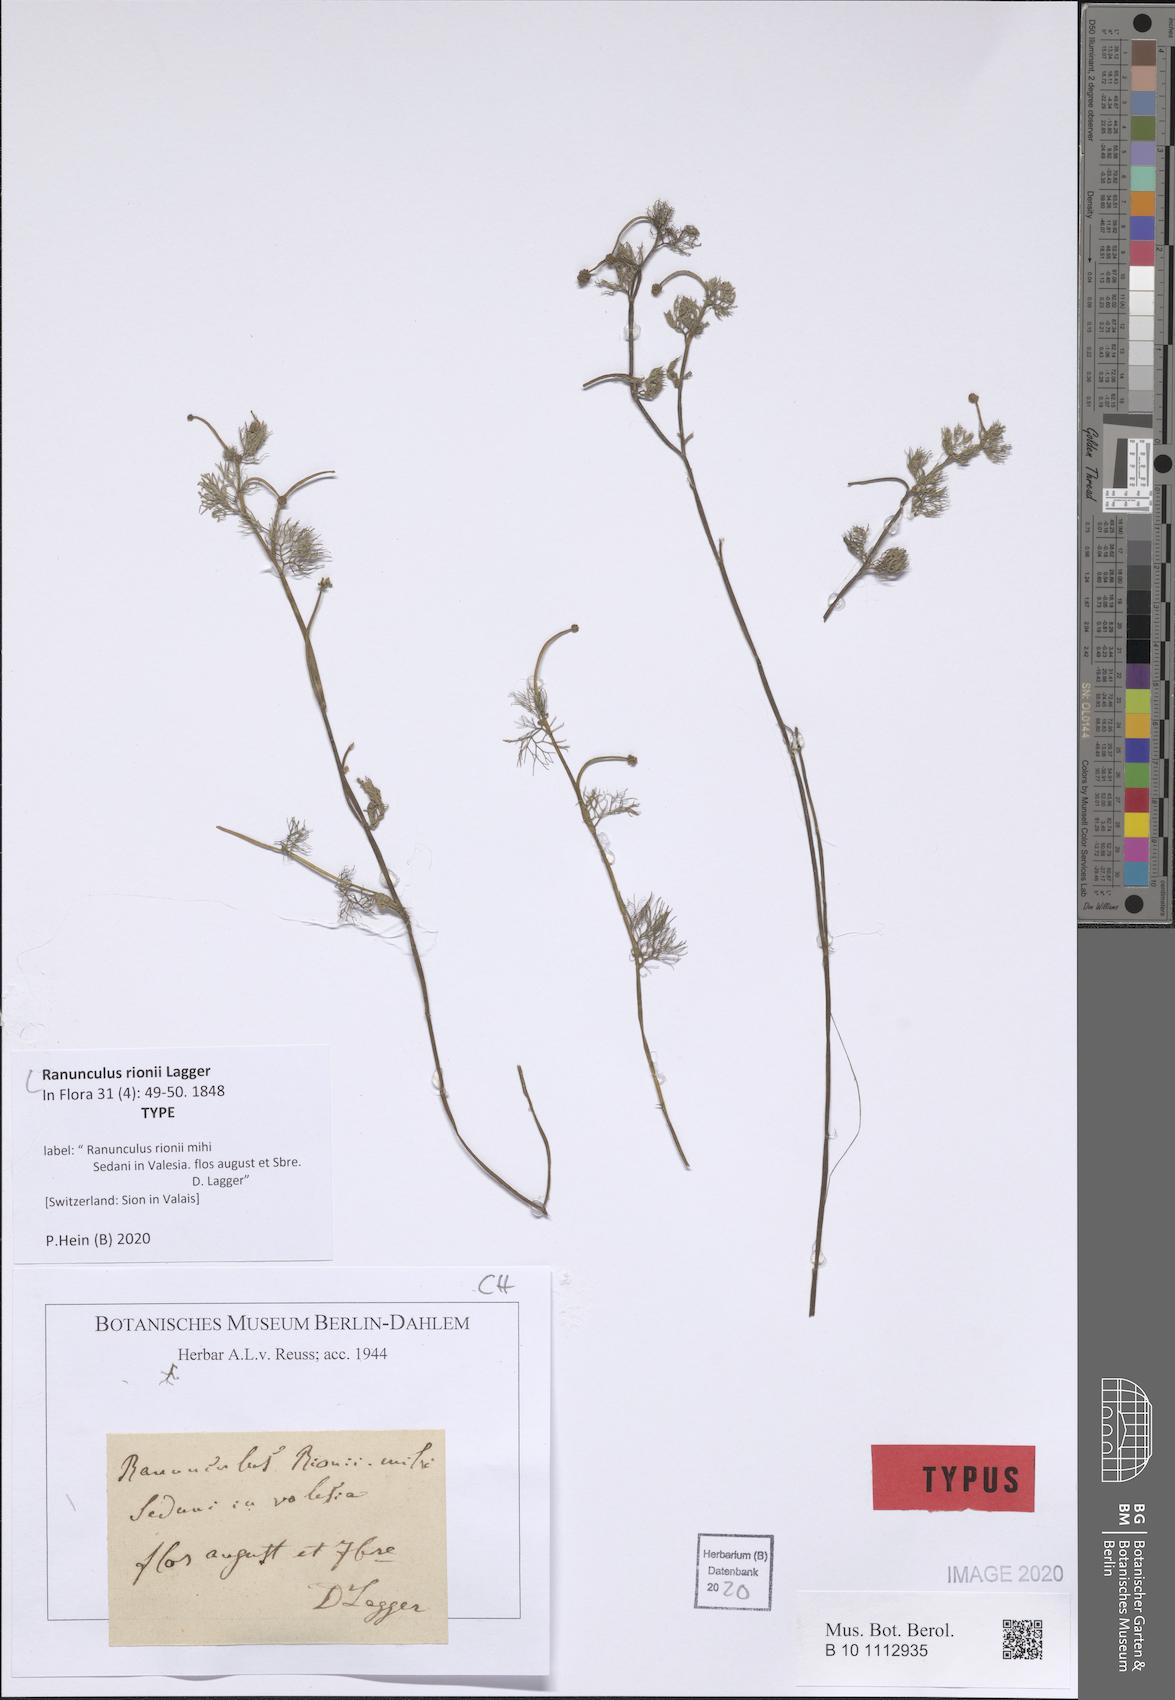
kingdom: Plantae
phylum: Tracheophyta
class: Magnoliopsida
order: Ranunculales
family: Ranunculaceae
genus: Ranunculus
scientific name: Ranunculus rionii
